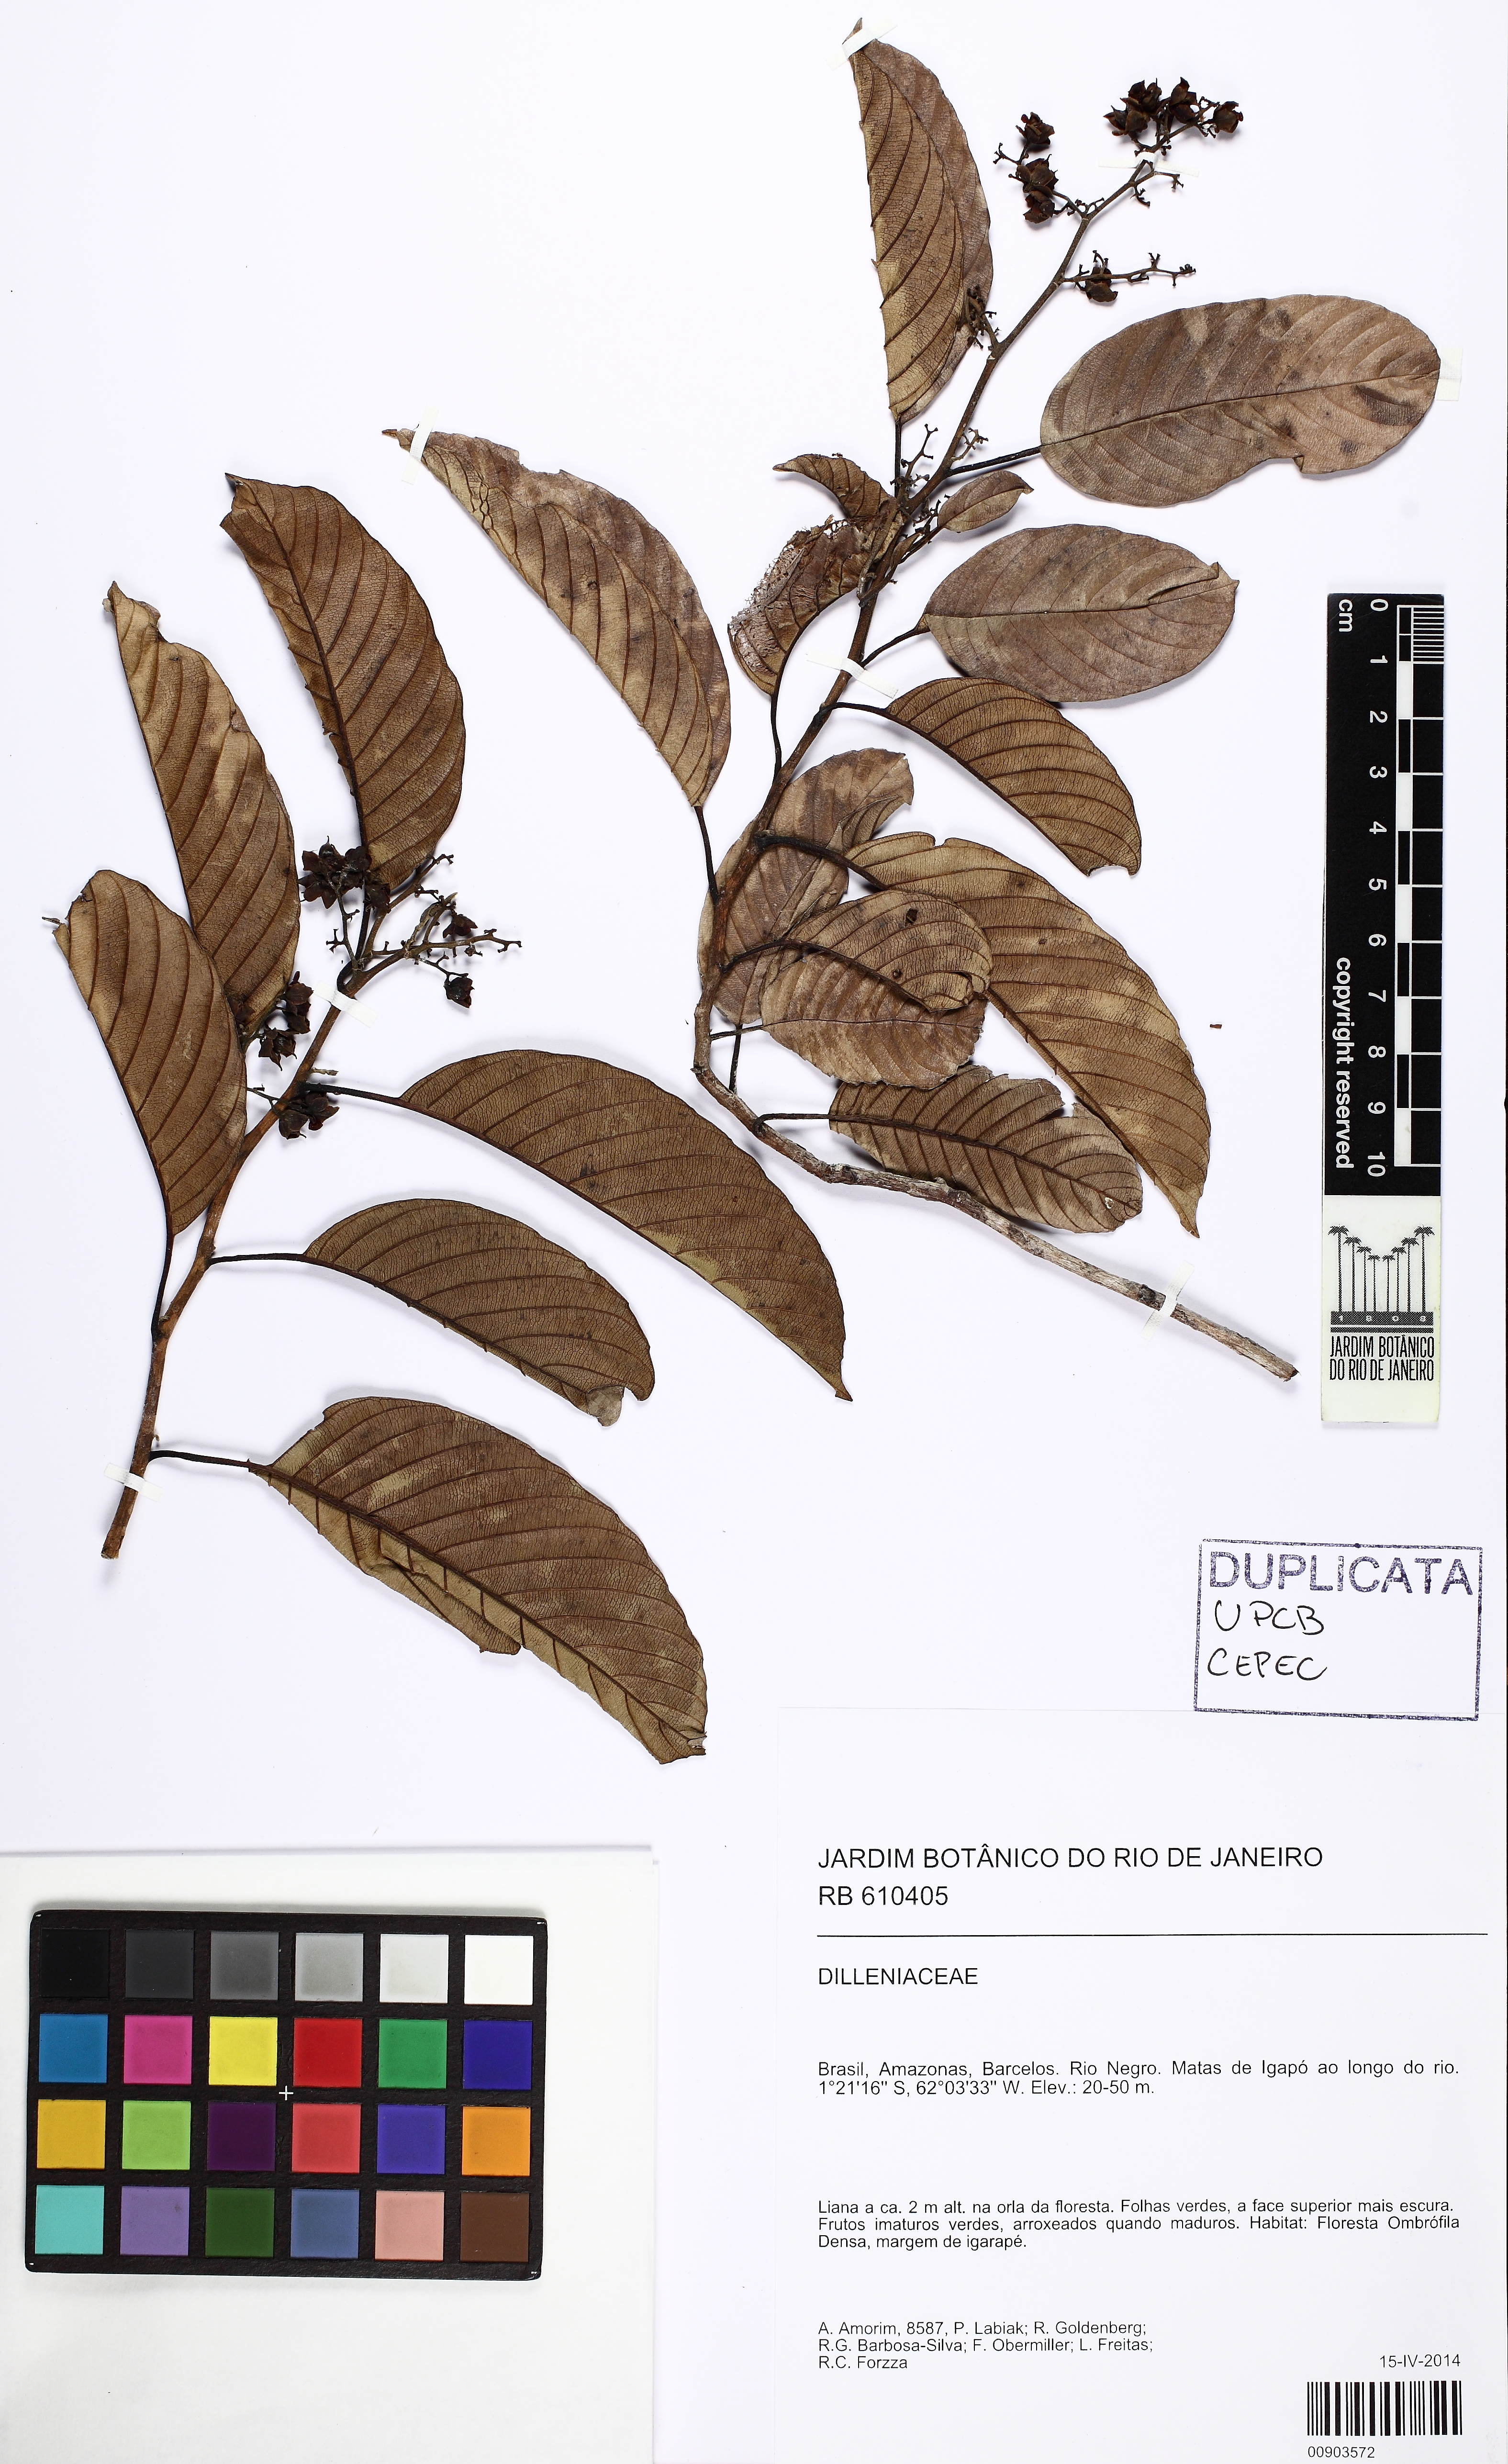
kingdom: Plantae
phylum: Tracheophyta
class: Magnoliopsida
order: Dilleniales
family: Dilleniaceae
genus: Tetracera
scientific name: Tetracera willdenowiana
